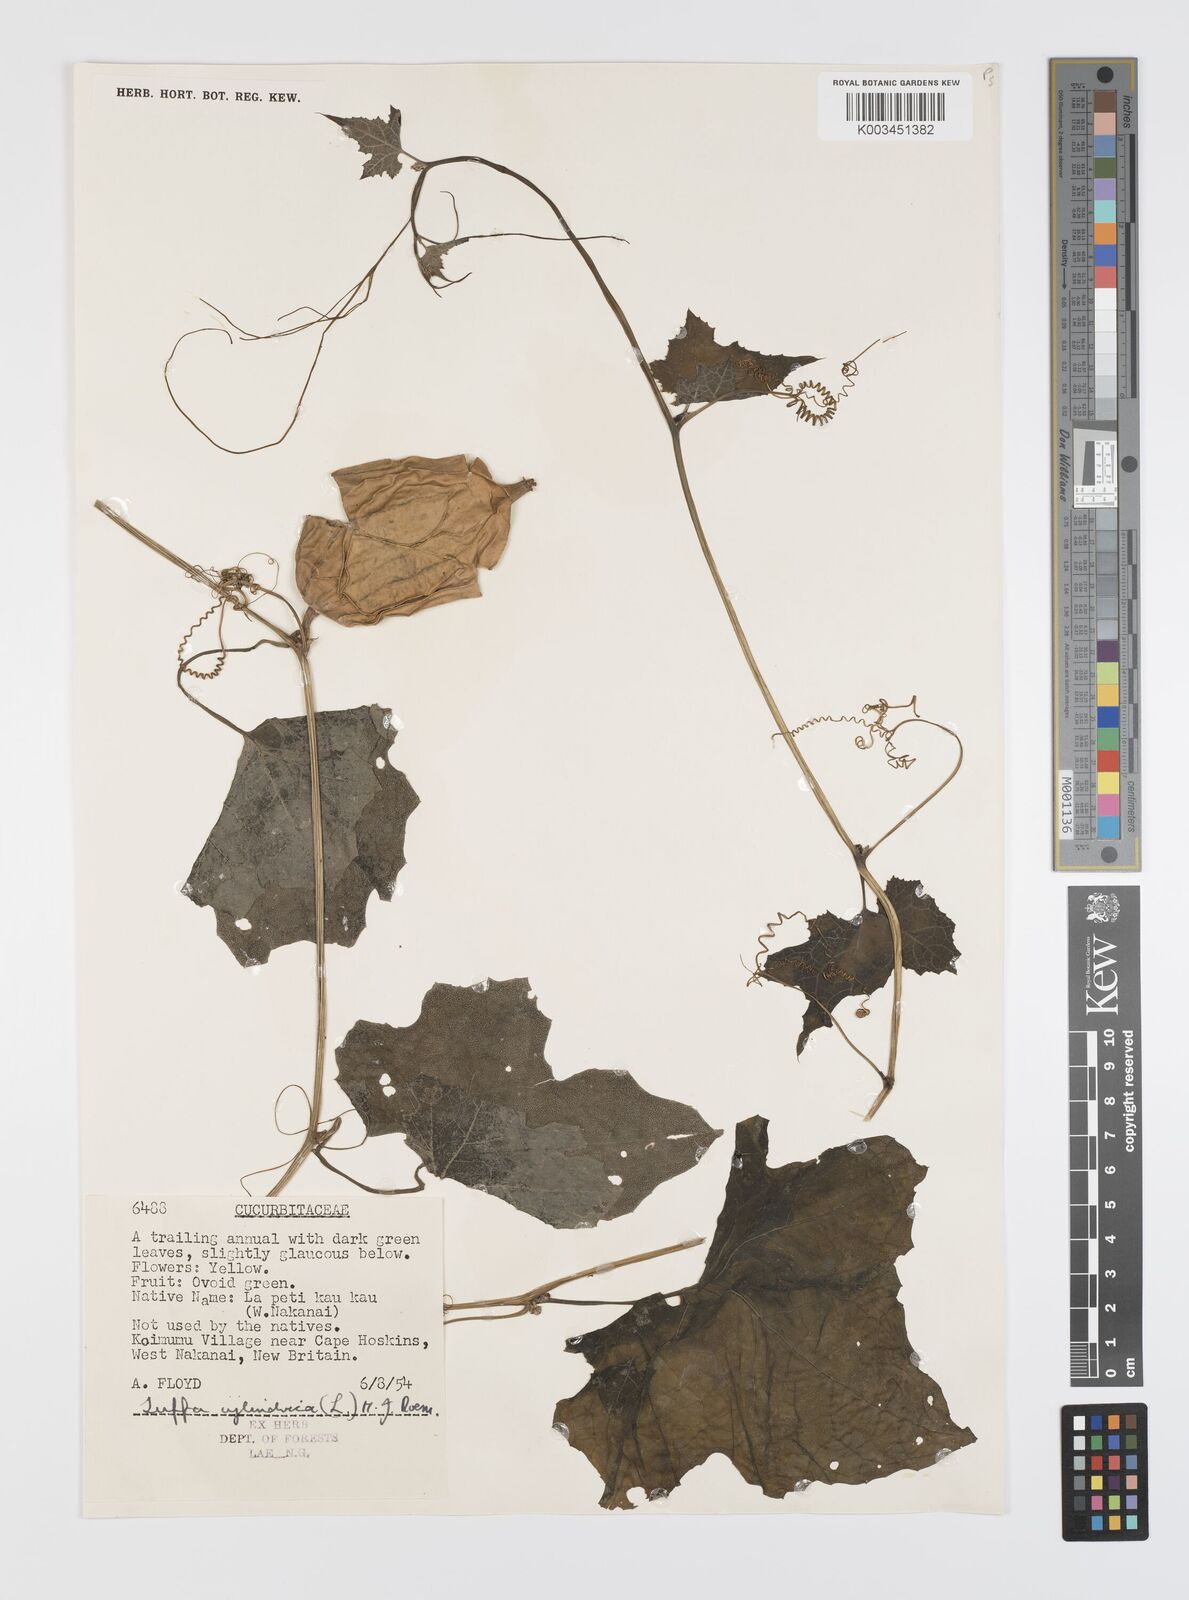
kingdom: Plantae
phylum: Tracheophyta
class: Magnoliopsida
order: Cucurbitales
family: Cucurbitaceae
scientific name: Cucurbitaceae
